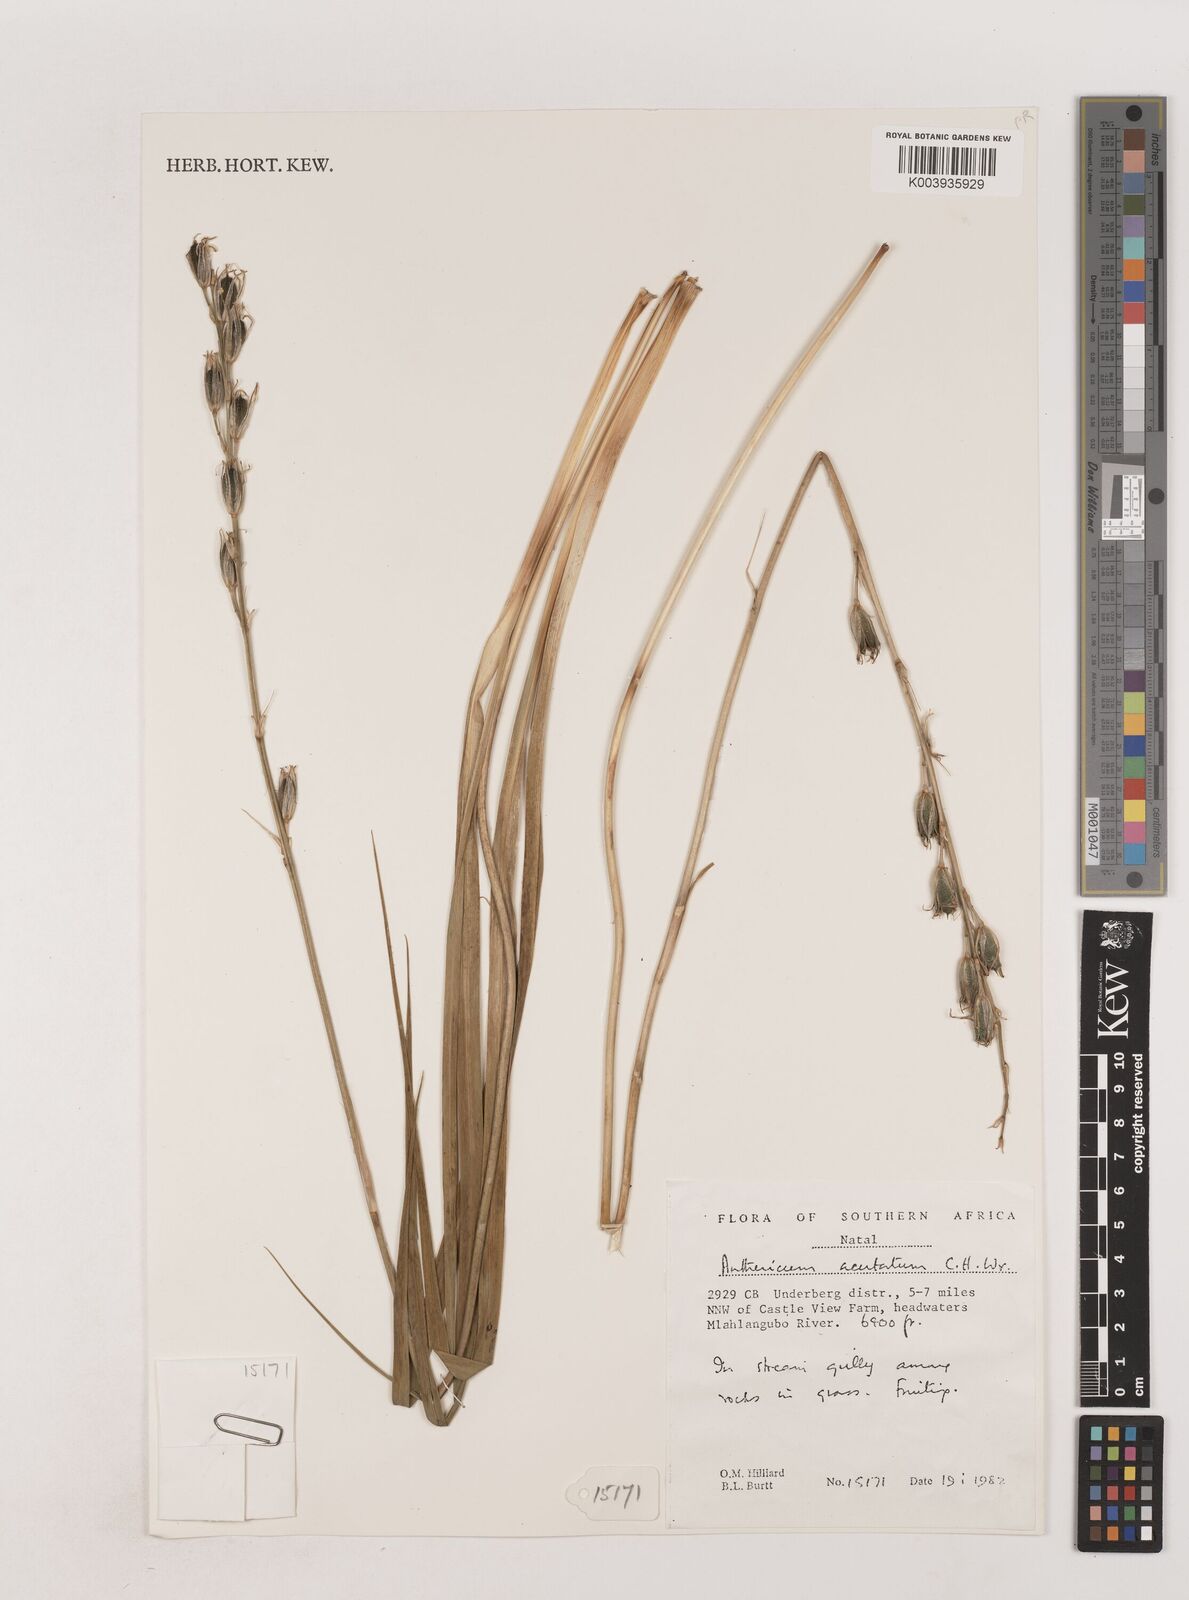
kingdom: Plantae
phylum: Tracheophyta
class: Liliopsida
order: Asparagales
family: Asparagaceae
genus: Chlorophytum
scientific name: Chlorophytum acutum
